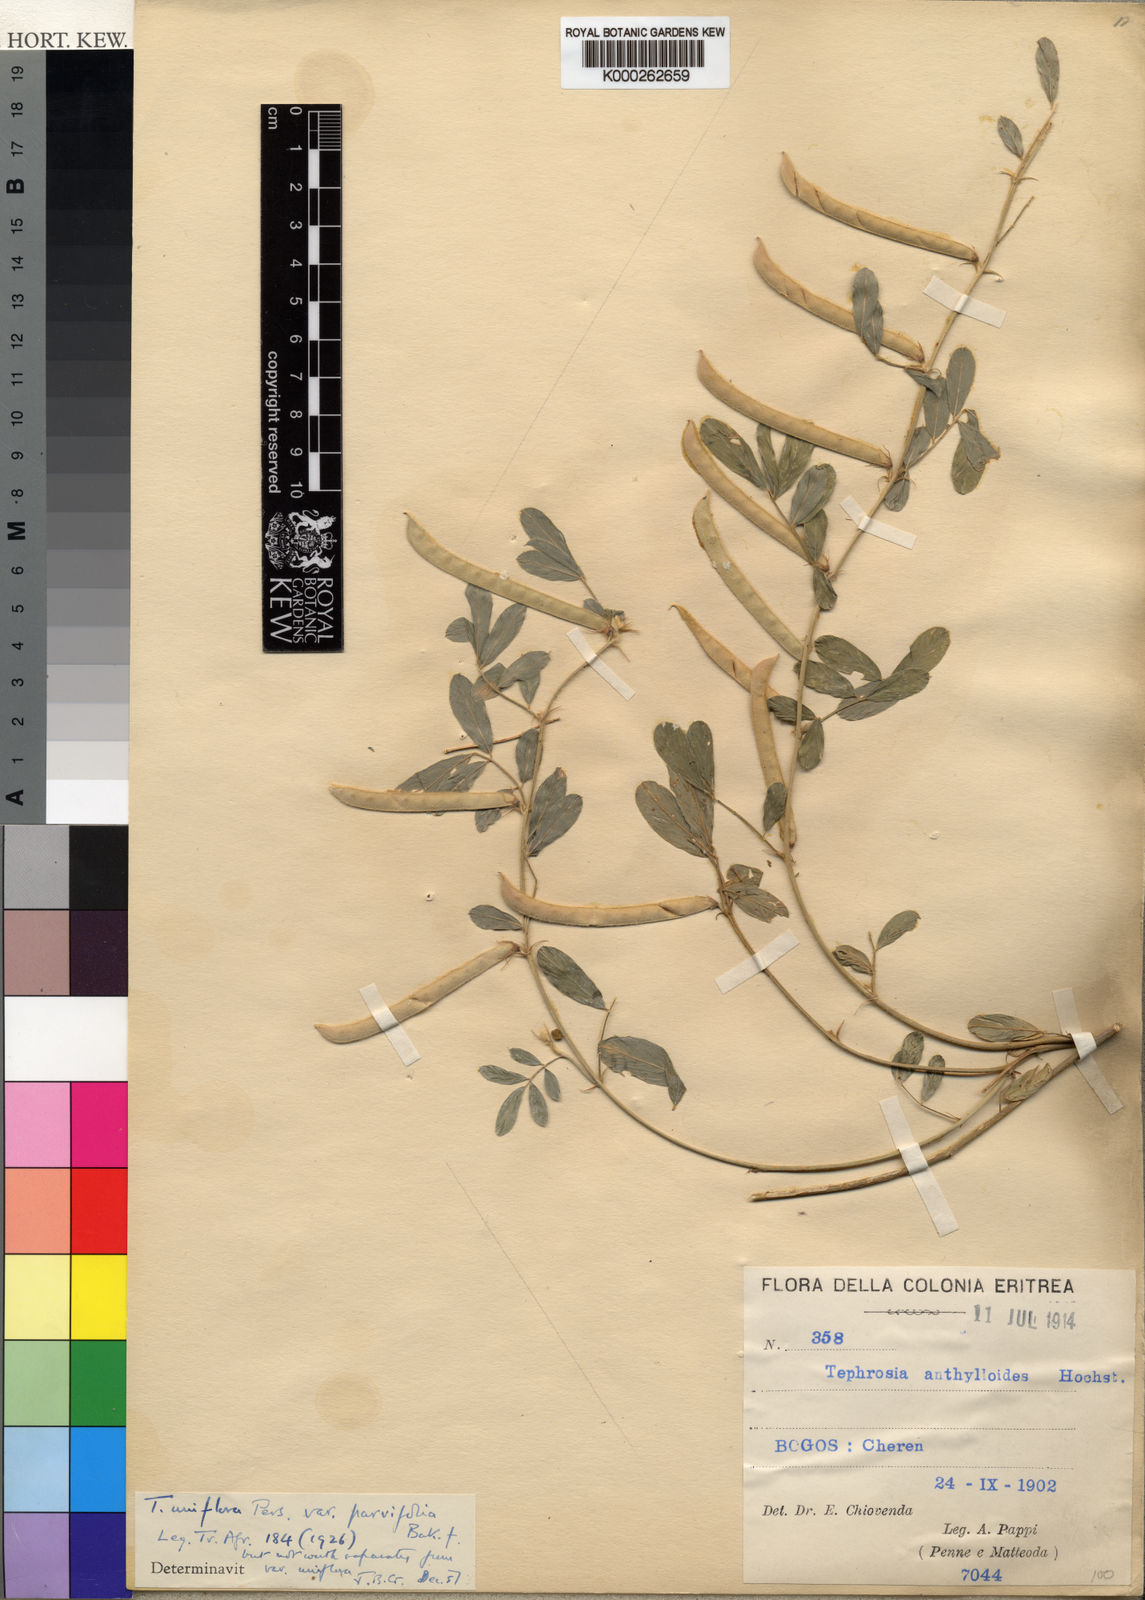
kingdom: Plantae
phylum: Tracheophyta
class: Magnoliopsida
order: Fabales
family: Fabaceae
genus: Tephrosia
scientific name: Tephrosia uniflora
